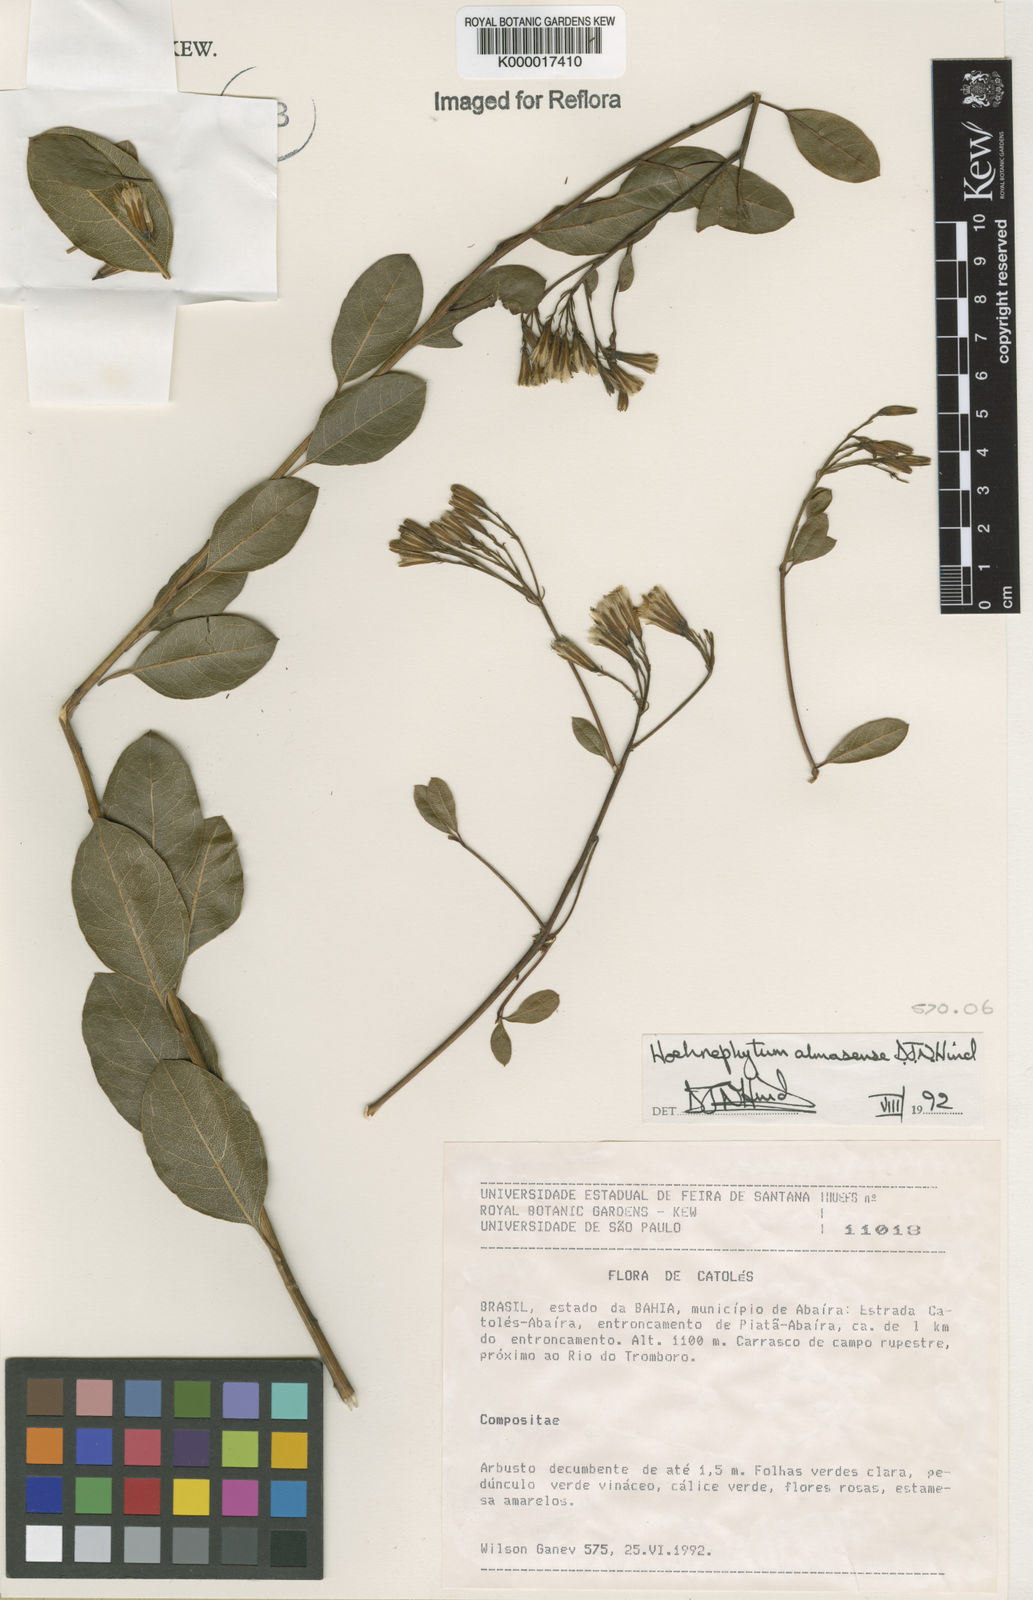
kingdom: Plantae
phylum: Tracheophyta
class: Magnoliopsida
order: Asterales
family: Asteraceae
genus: Hoehnephytum
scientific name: Hoehnephytum almasense
